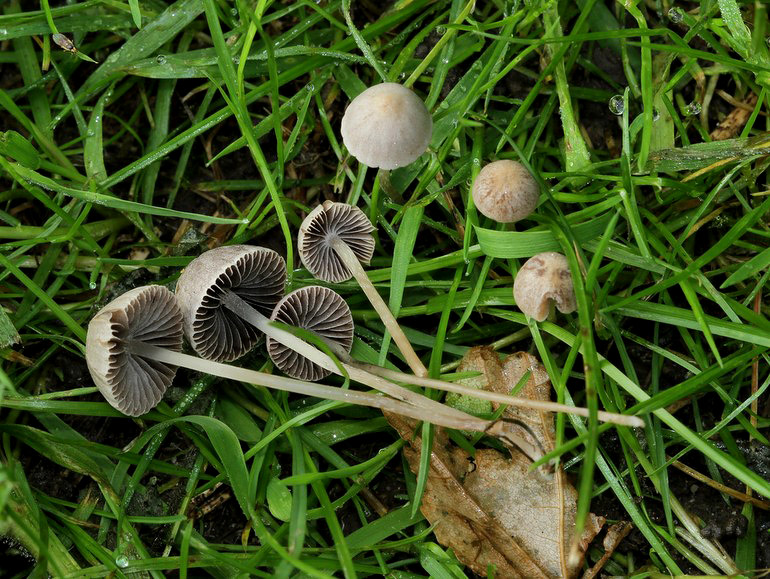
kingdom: Fungi
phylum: Basidiomycota
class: Agaricomycetes
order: Agaricales
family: Psathyrellaceae
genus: Psathyrella
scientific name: Psathyrella prona
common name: vej-mørkhat
